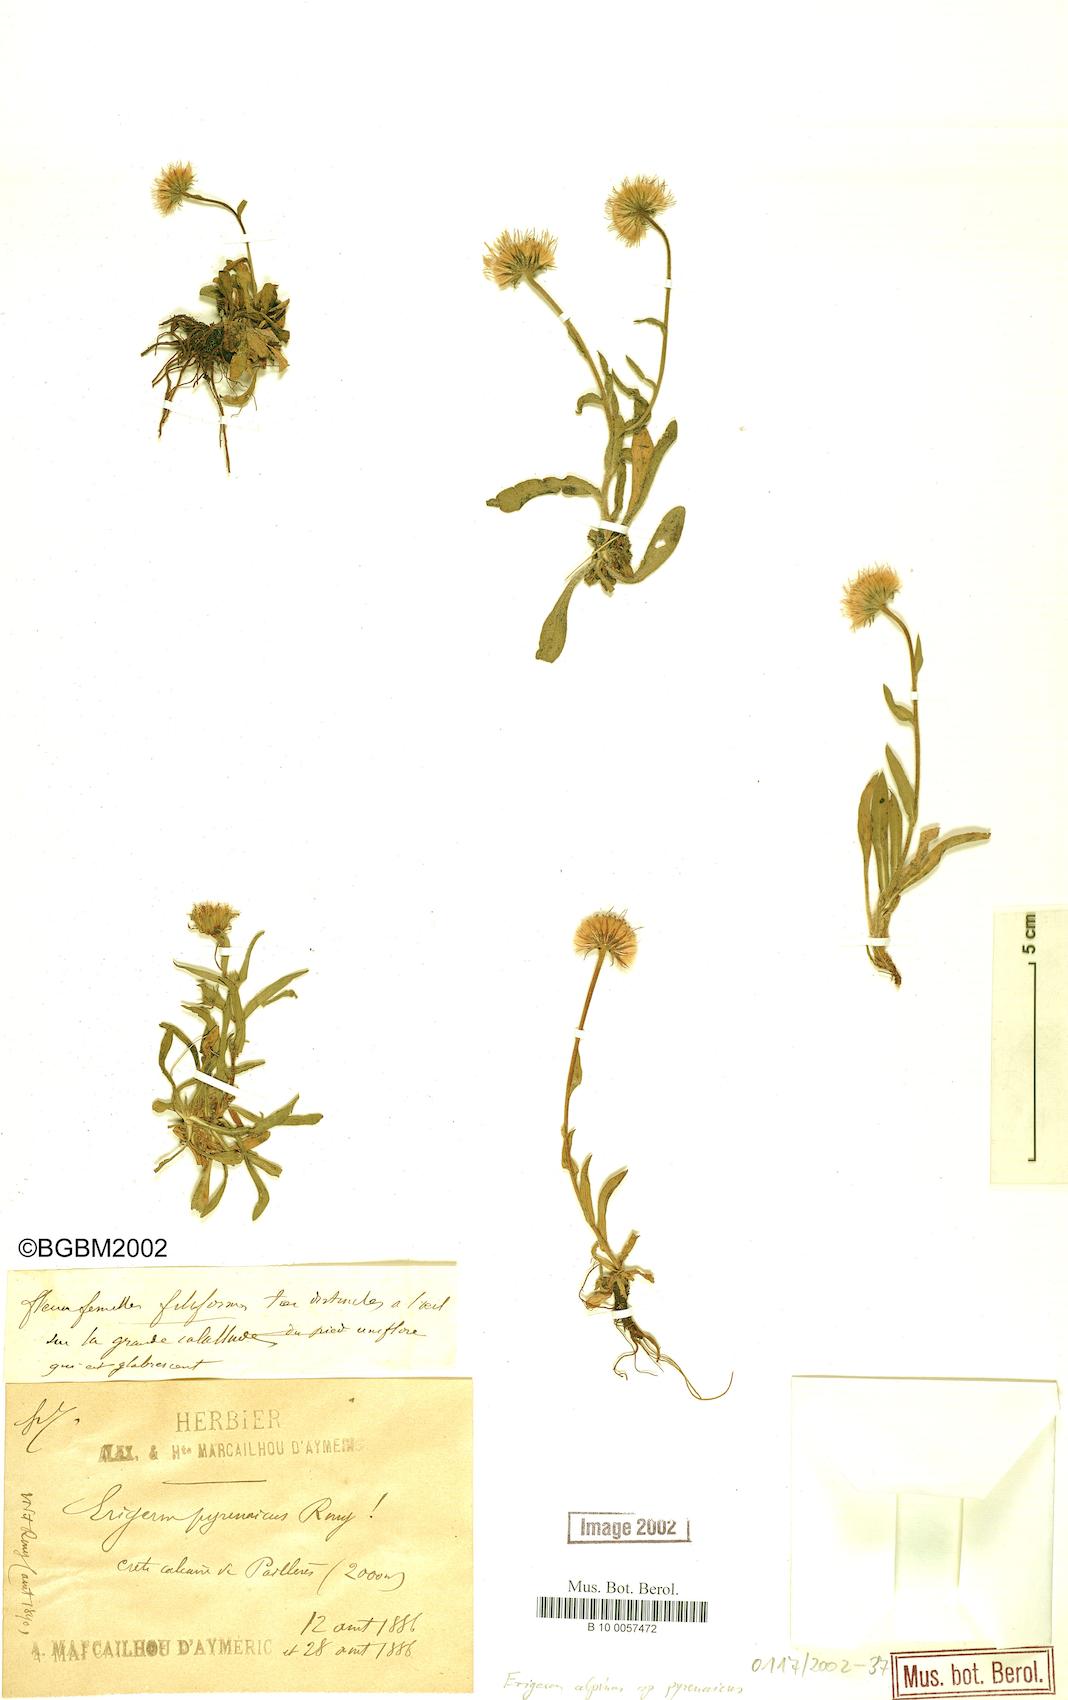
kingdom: Plantae
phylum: Tracheophyta
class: Magnoliopsida
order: Asterales
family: Asteraceae
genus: Erigeron
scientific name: Erigeron uniflorus
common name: Northern daisy
